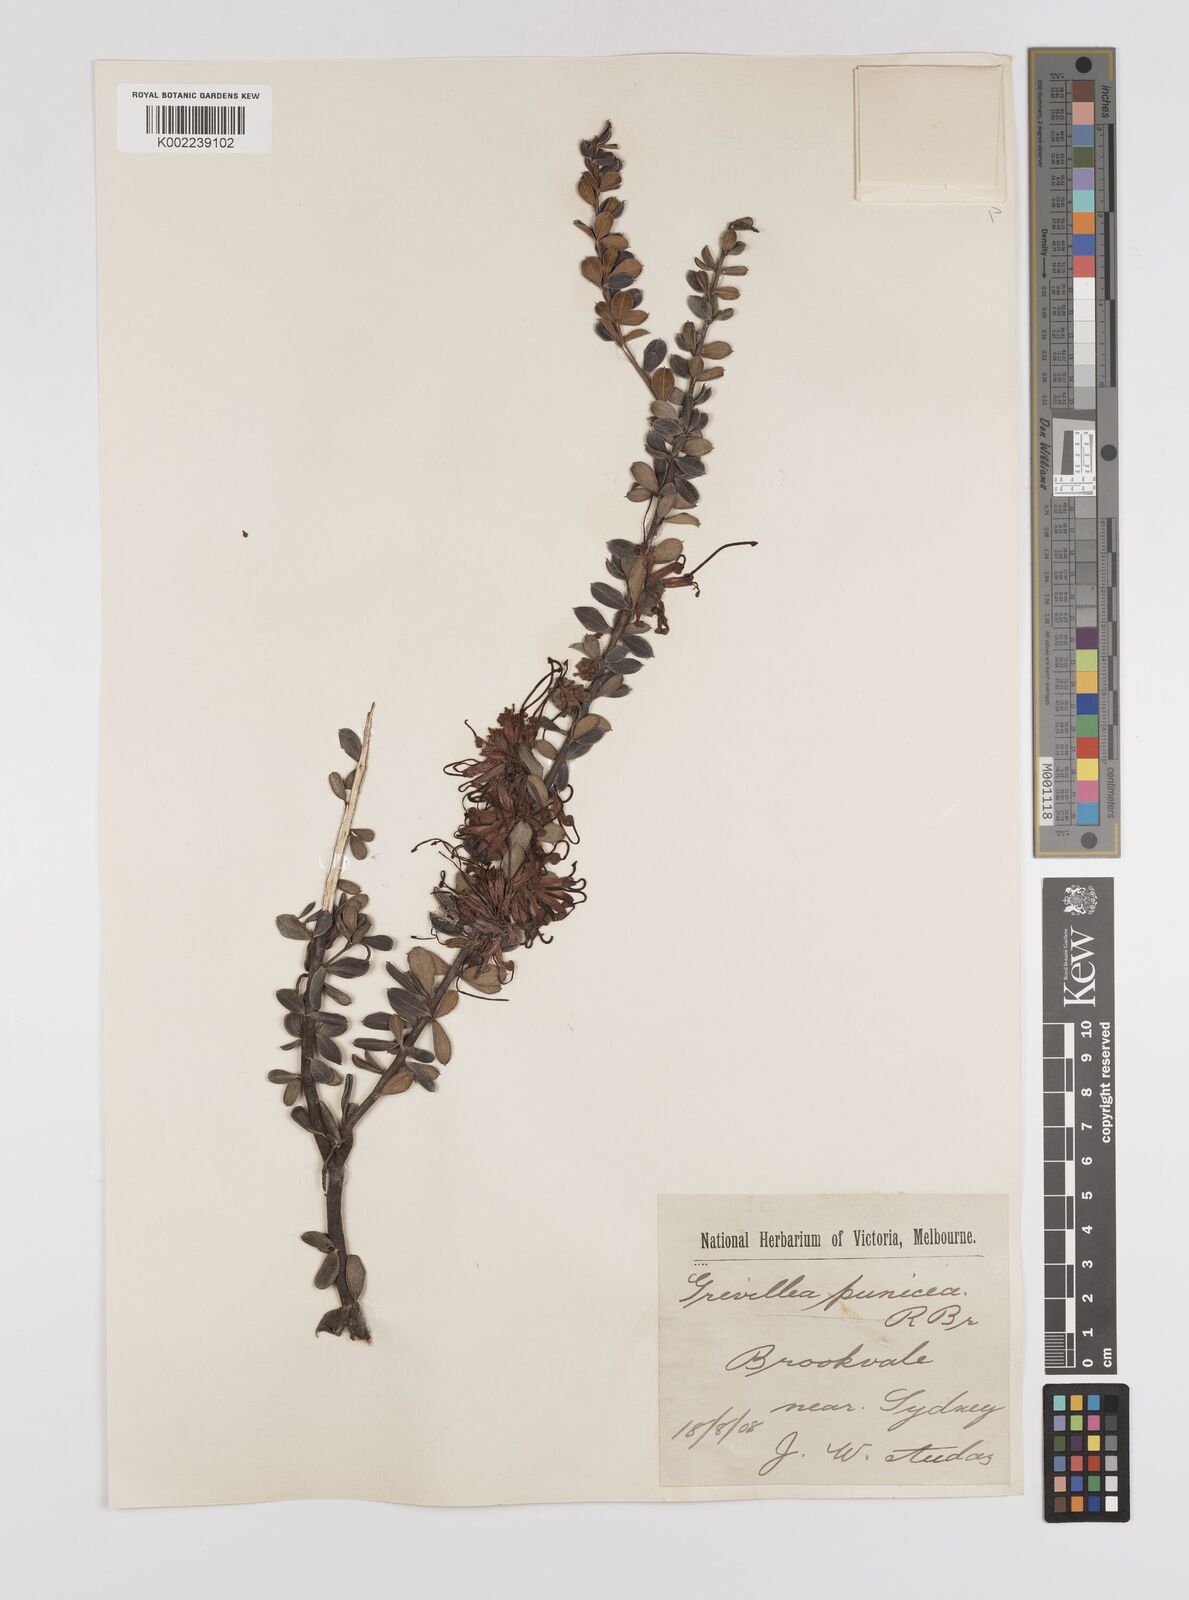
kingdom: Plantae
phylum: Tracheophyta
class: Magnoliopsida
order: Proteales
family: Proteaceae
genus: Grevillea
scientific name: Grevillea speciosa
